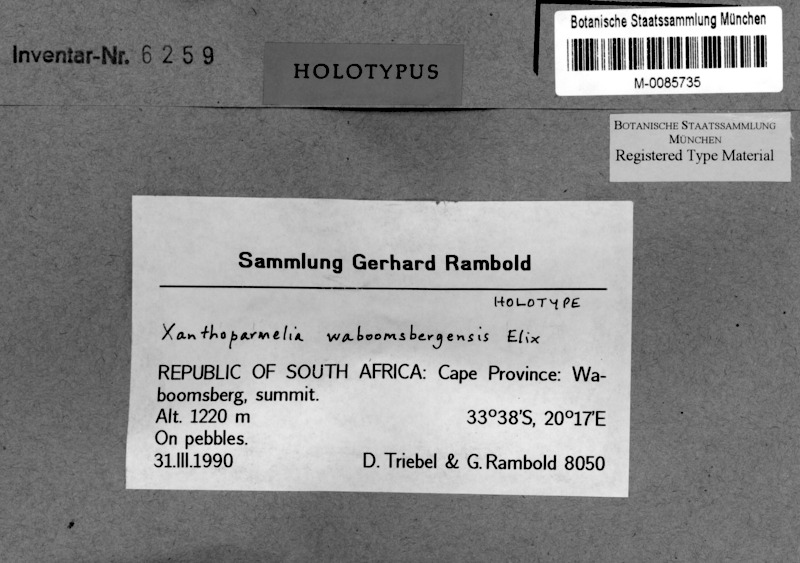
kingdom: Fungi
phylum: Ascomycota
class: Lecanoromycetes
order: Lecanorales
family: Parmeliaceae
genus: Xanthoparmelia
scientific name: Xanthoparmelia waboomsbergensis
